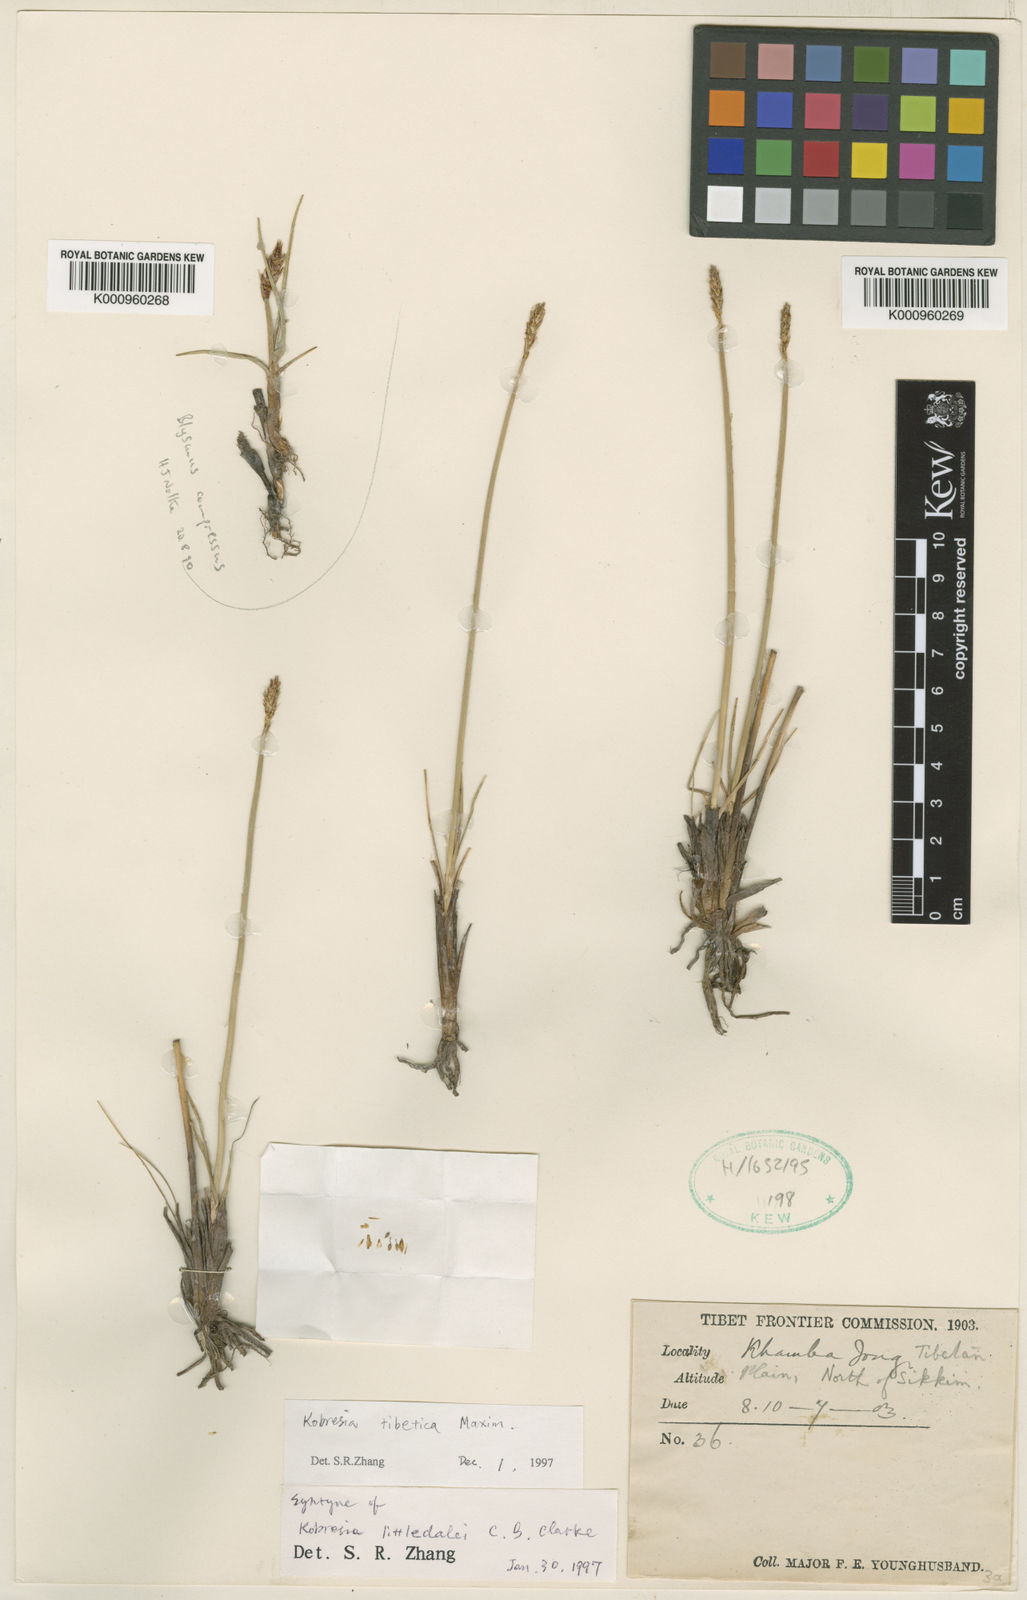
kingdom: Plantae
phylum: Tracheophyta
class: Liliopsida
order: Poales
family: Cyperaceae
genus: Carex
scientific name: Carex tibetikobresia
